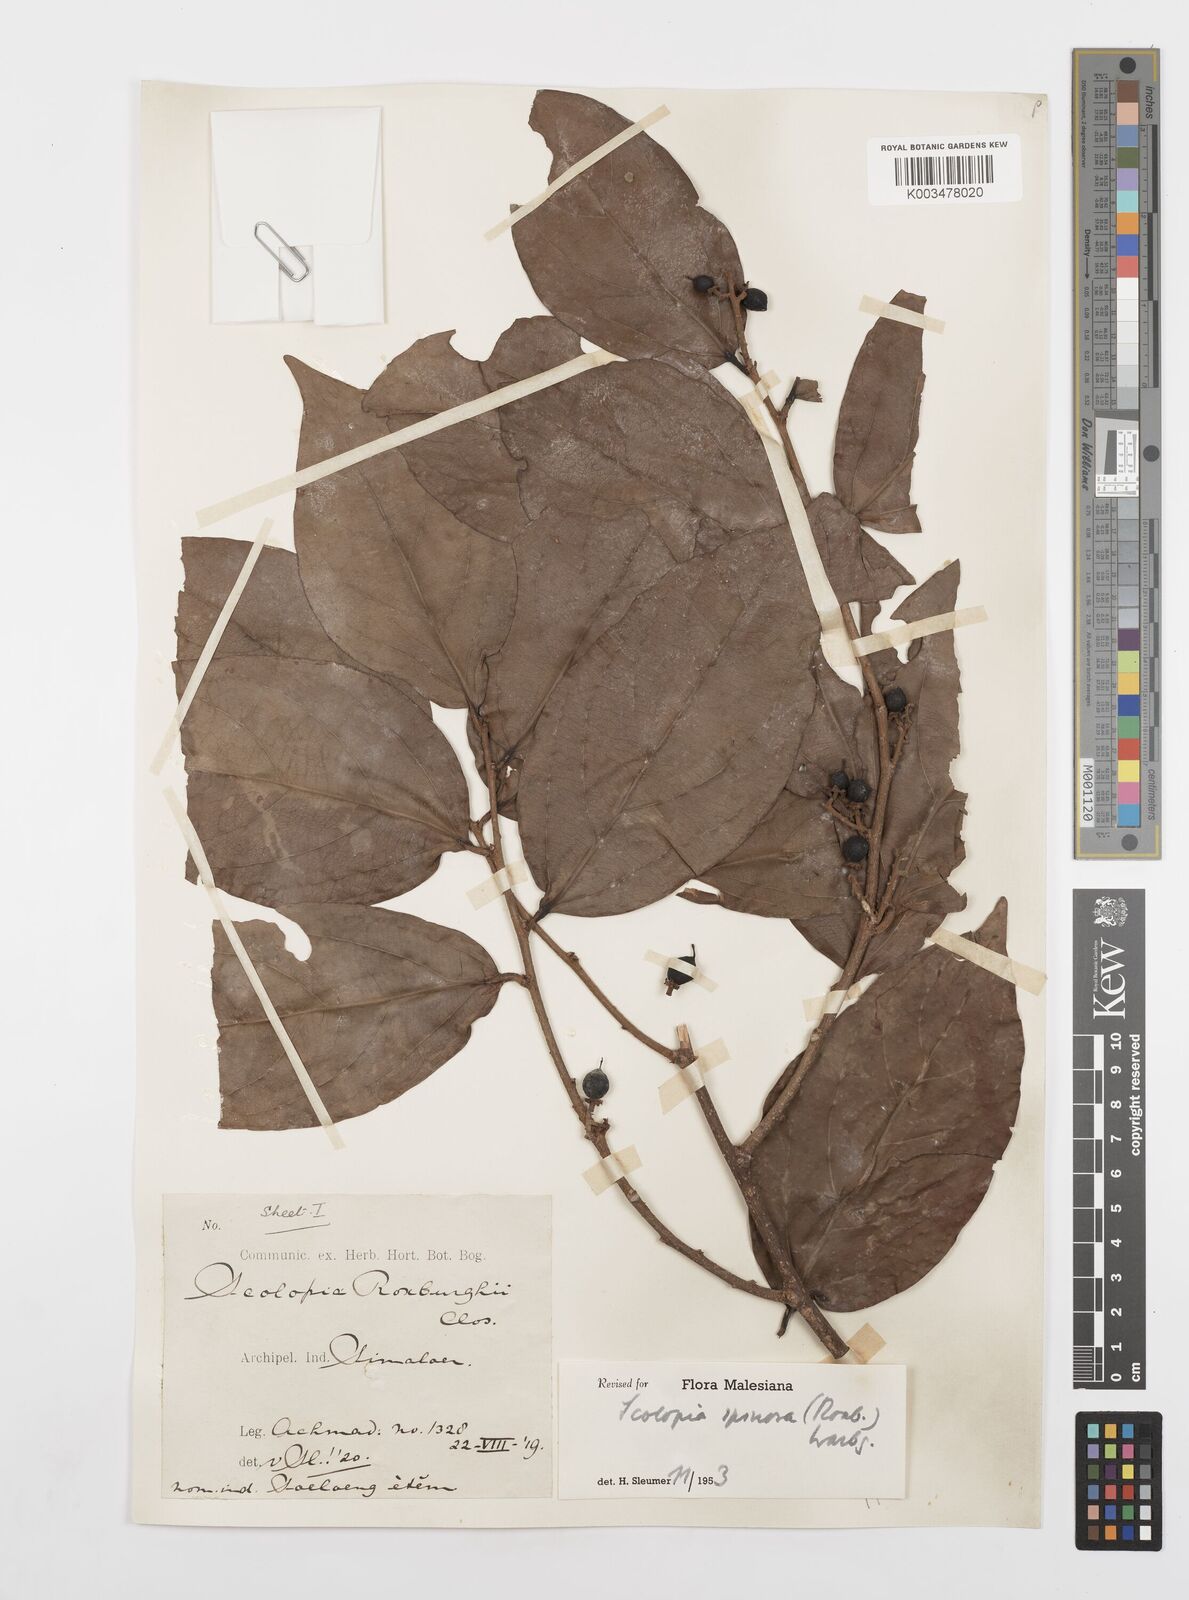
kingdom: Plantae
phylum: Tracheophyta
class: Magnoliopsida
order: Malpighiales
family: Salicaceae
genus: Scolopia
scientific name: Scolopia spinosa
